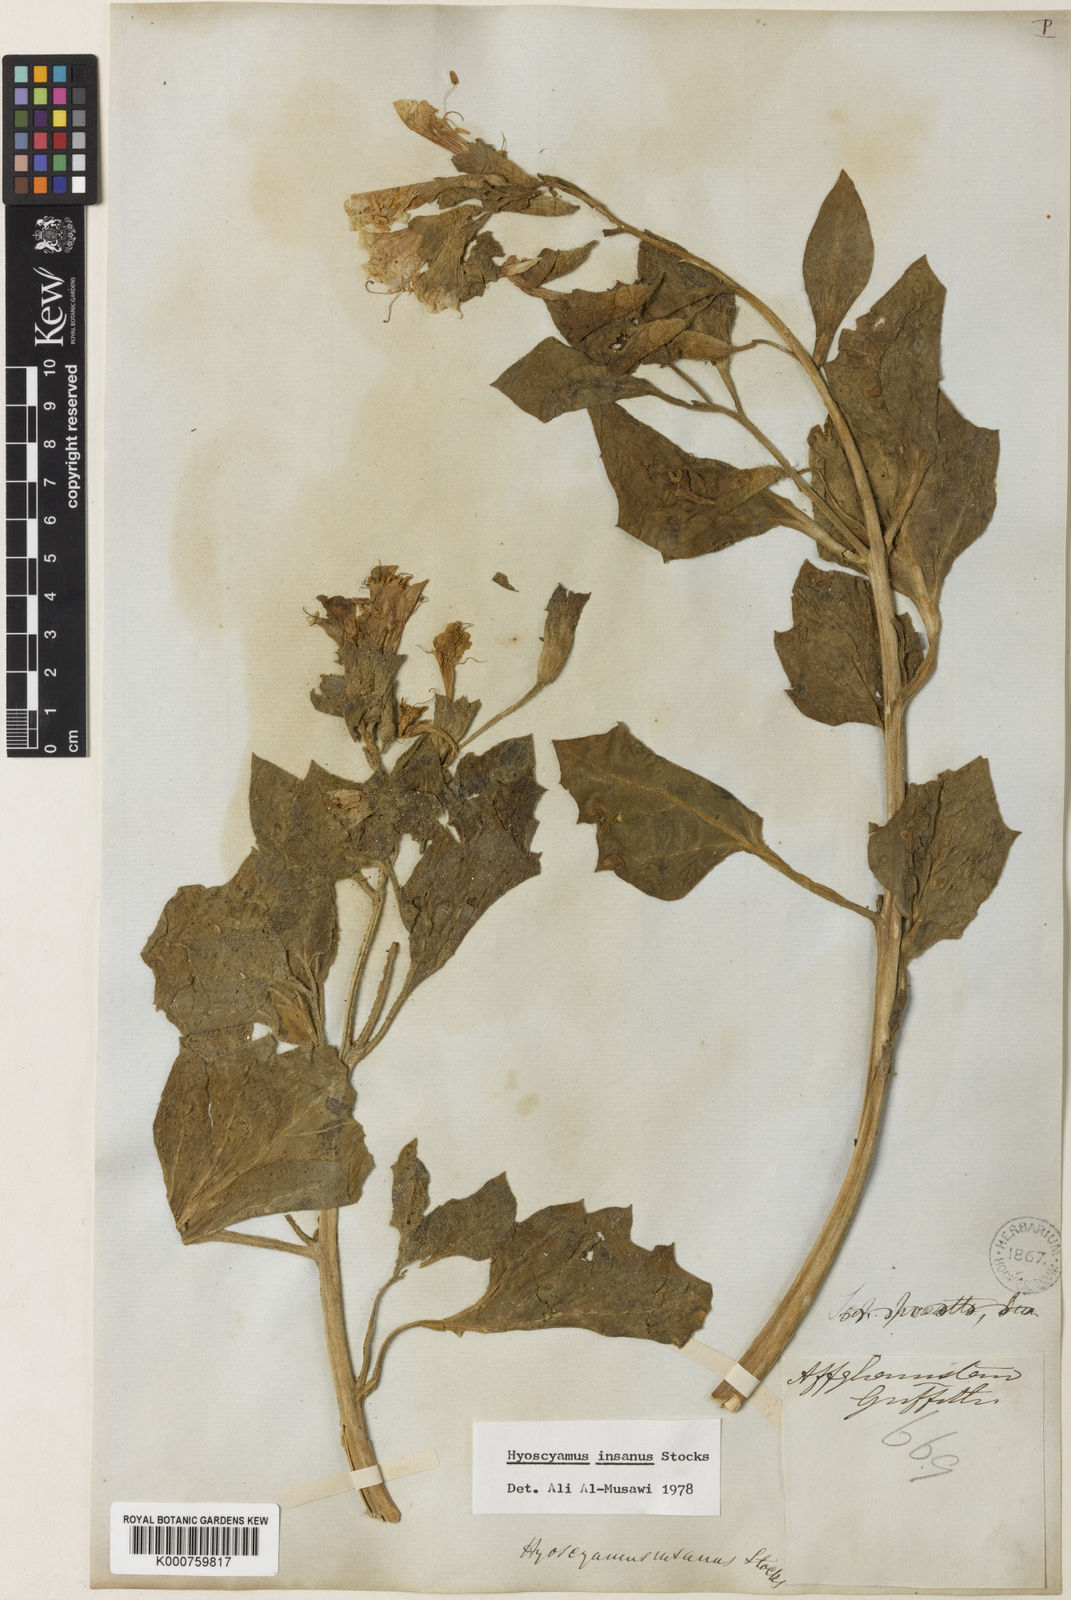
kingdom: Plantae
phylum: Tracheophyta
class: Magnoliopsida
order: Solanales
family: Solanaceae
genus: Hyoscyamus
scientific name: Hyoscyamus insanus
